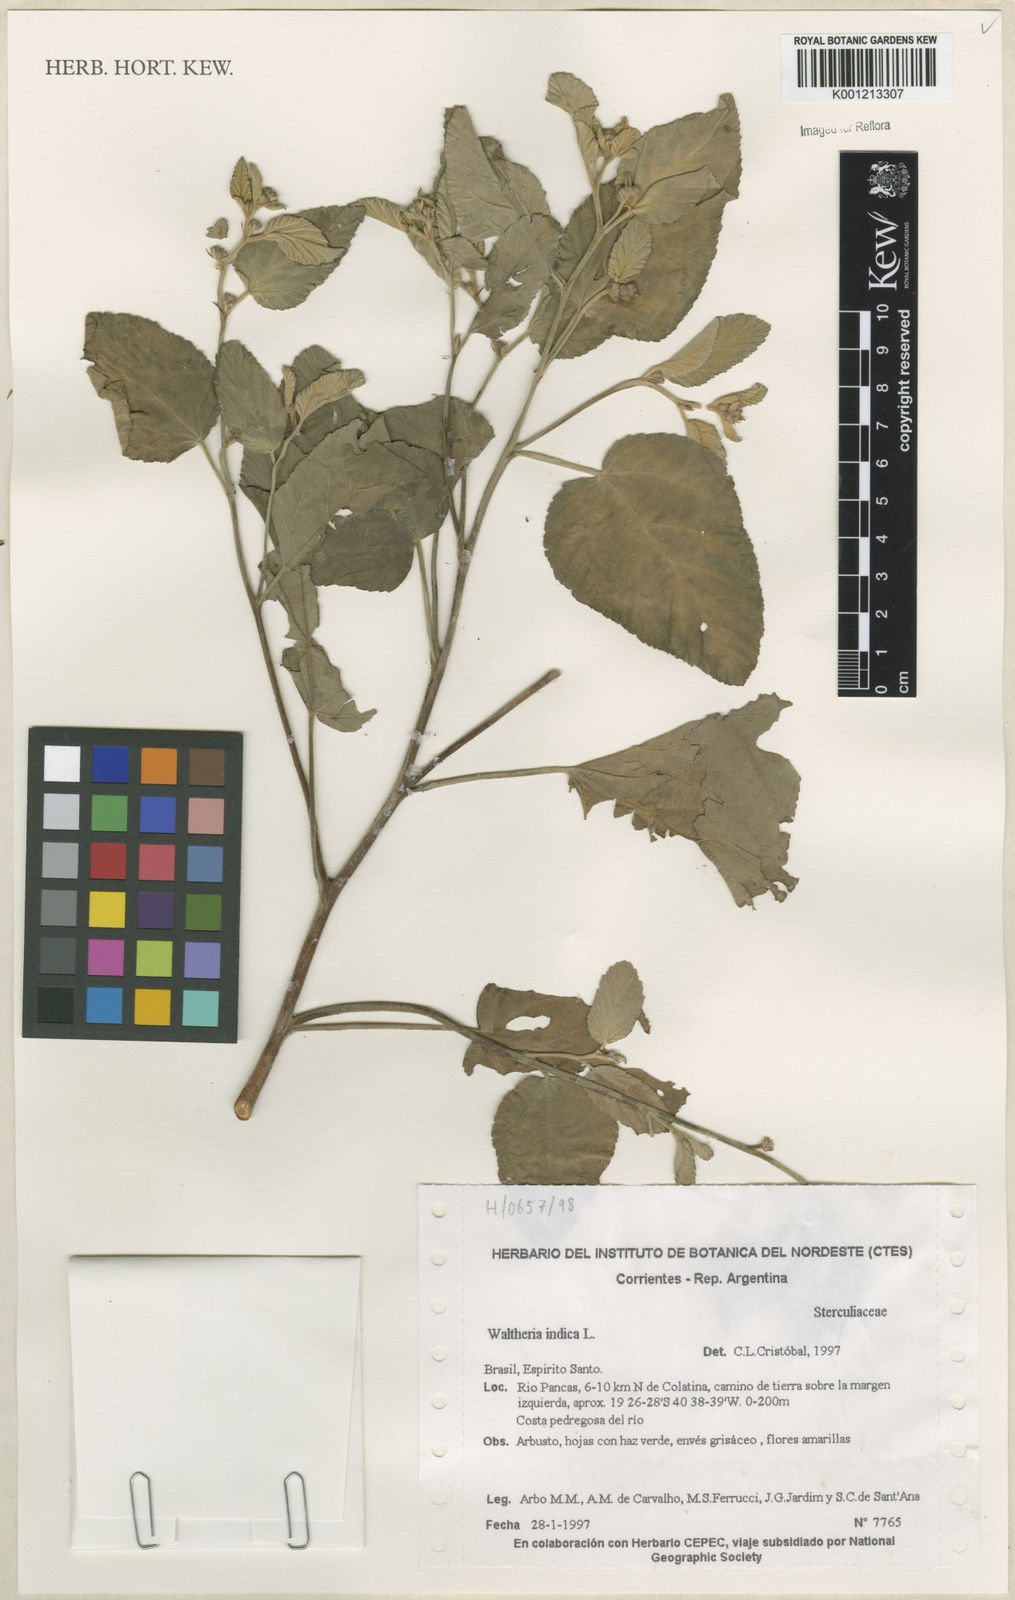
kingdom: Plantae
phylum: Tracheophyta
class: Magnoliopsida
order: Malvales
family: Malvaceae
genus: Waltheria
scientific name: Waltheria indica
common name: Leather-coat
